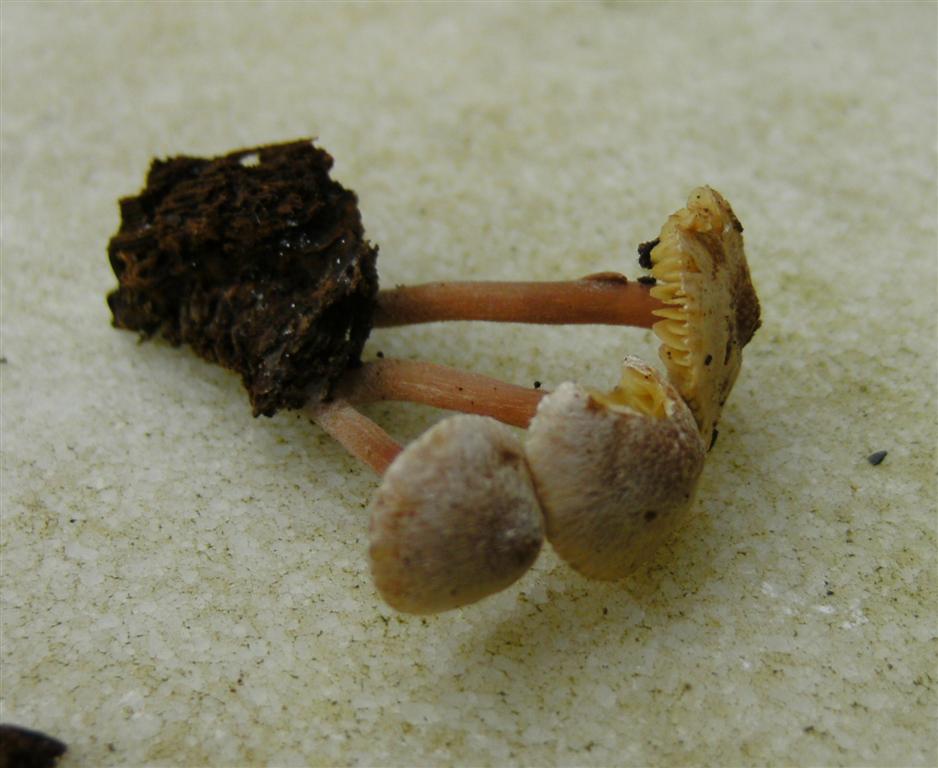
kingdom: Fungi
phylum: Basidiomycota
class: Agaricomycetes
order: Agaricales
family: Inocybaceae
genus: Inocybe
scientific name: Inocybe petiginosa
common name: liden trævlhat
